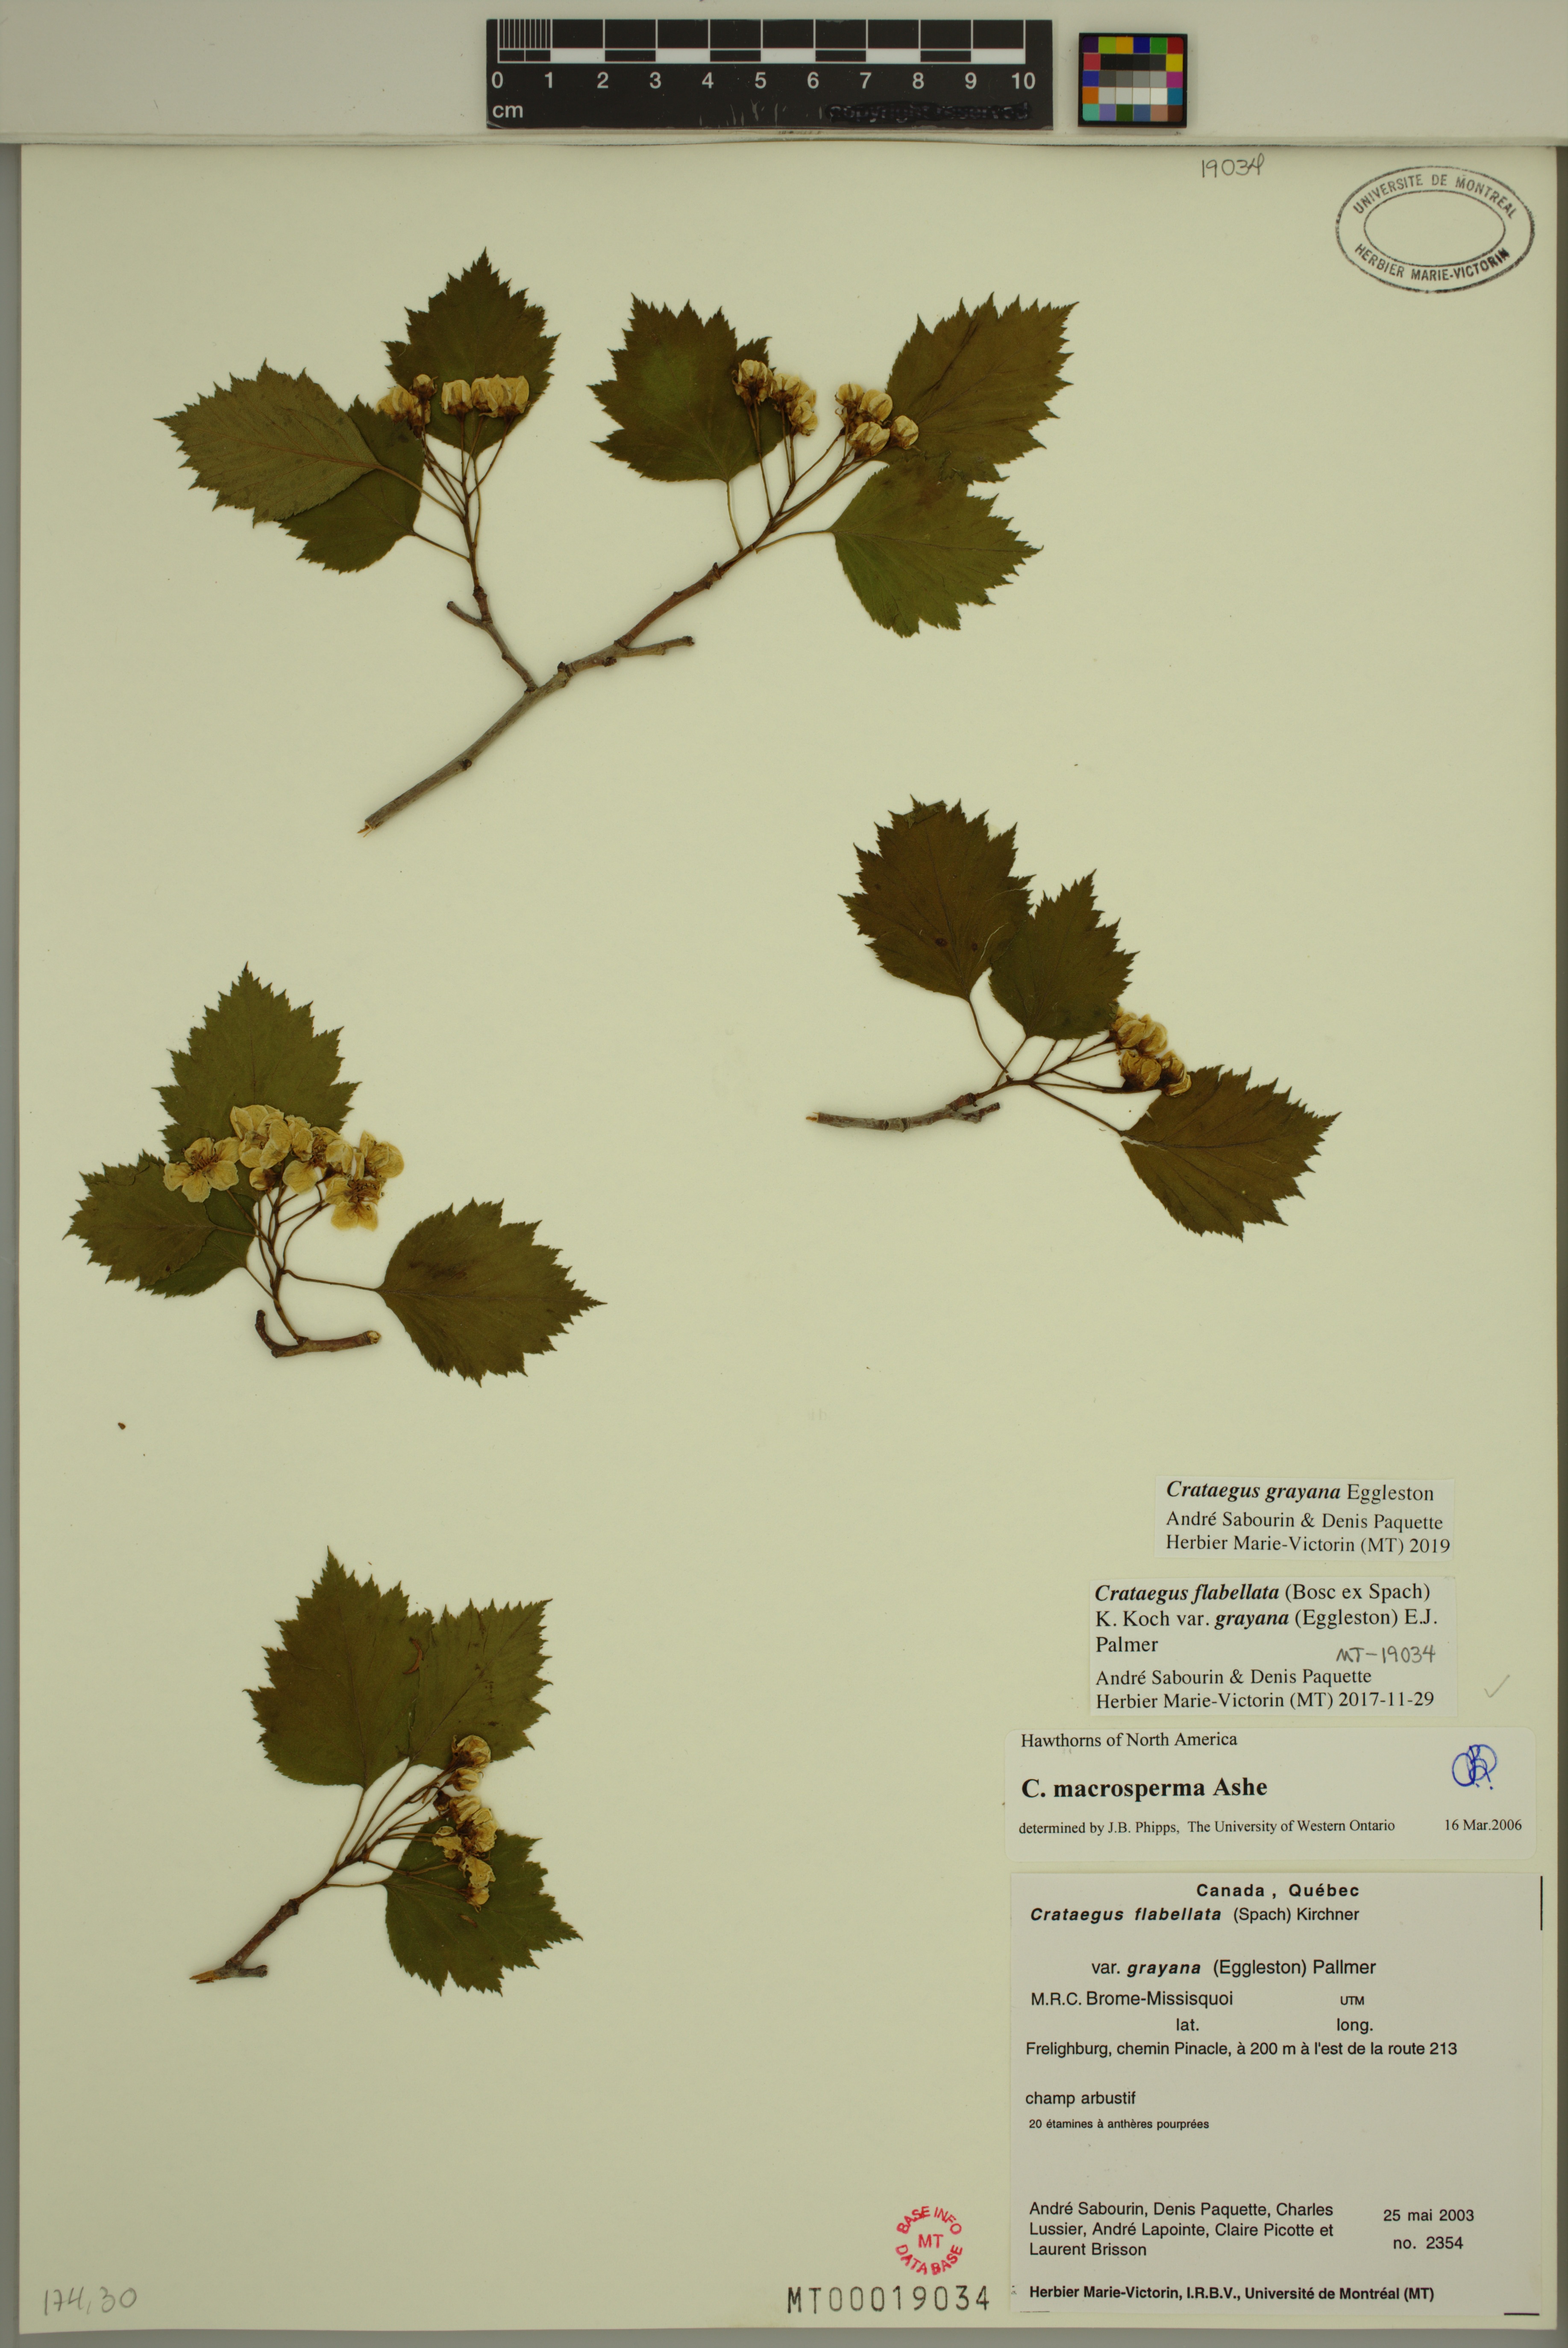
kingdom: Plantae
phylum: Tracheophyta
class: Magnoliopsida
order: Rosales
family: Rosaceae
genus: Crataegus
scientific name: Crataegus schuettei
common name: Schuette's hawthorn
